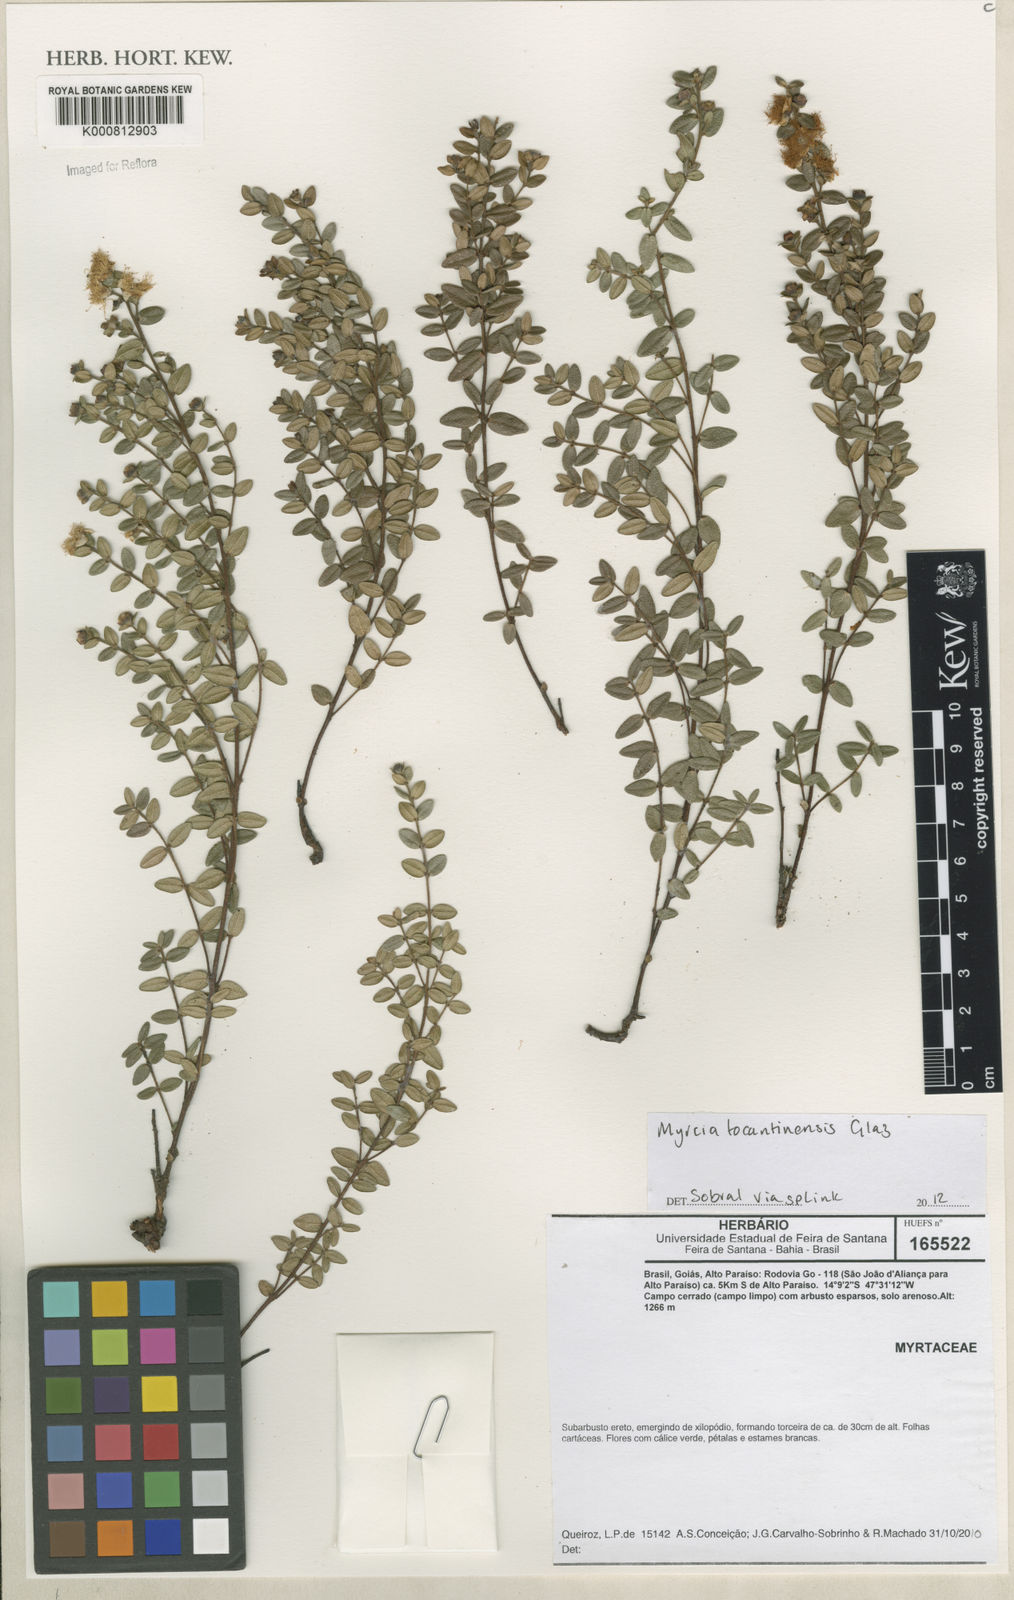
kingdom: Plantae
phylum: Tracheophyta
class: Magnoliopsida
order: Myrtales
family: Myrtaceae
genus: Myrcia
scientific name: Myrcia
